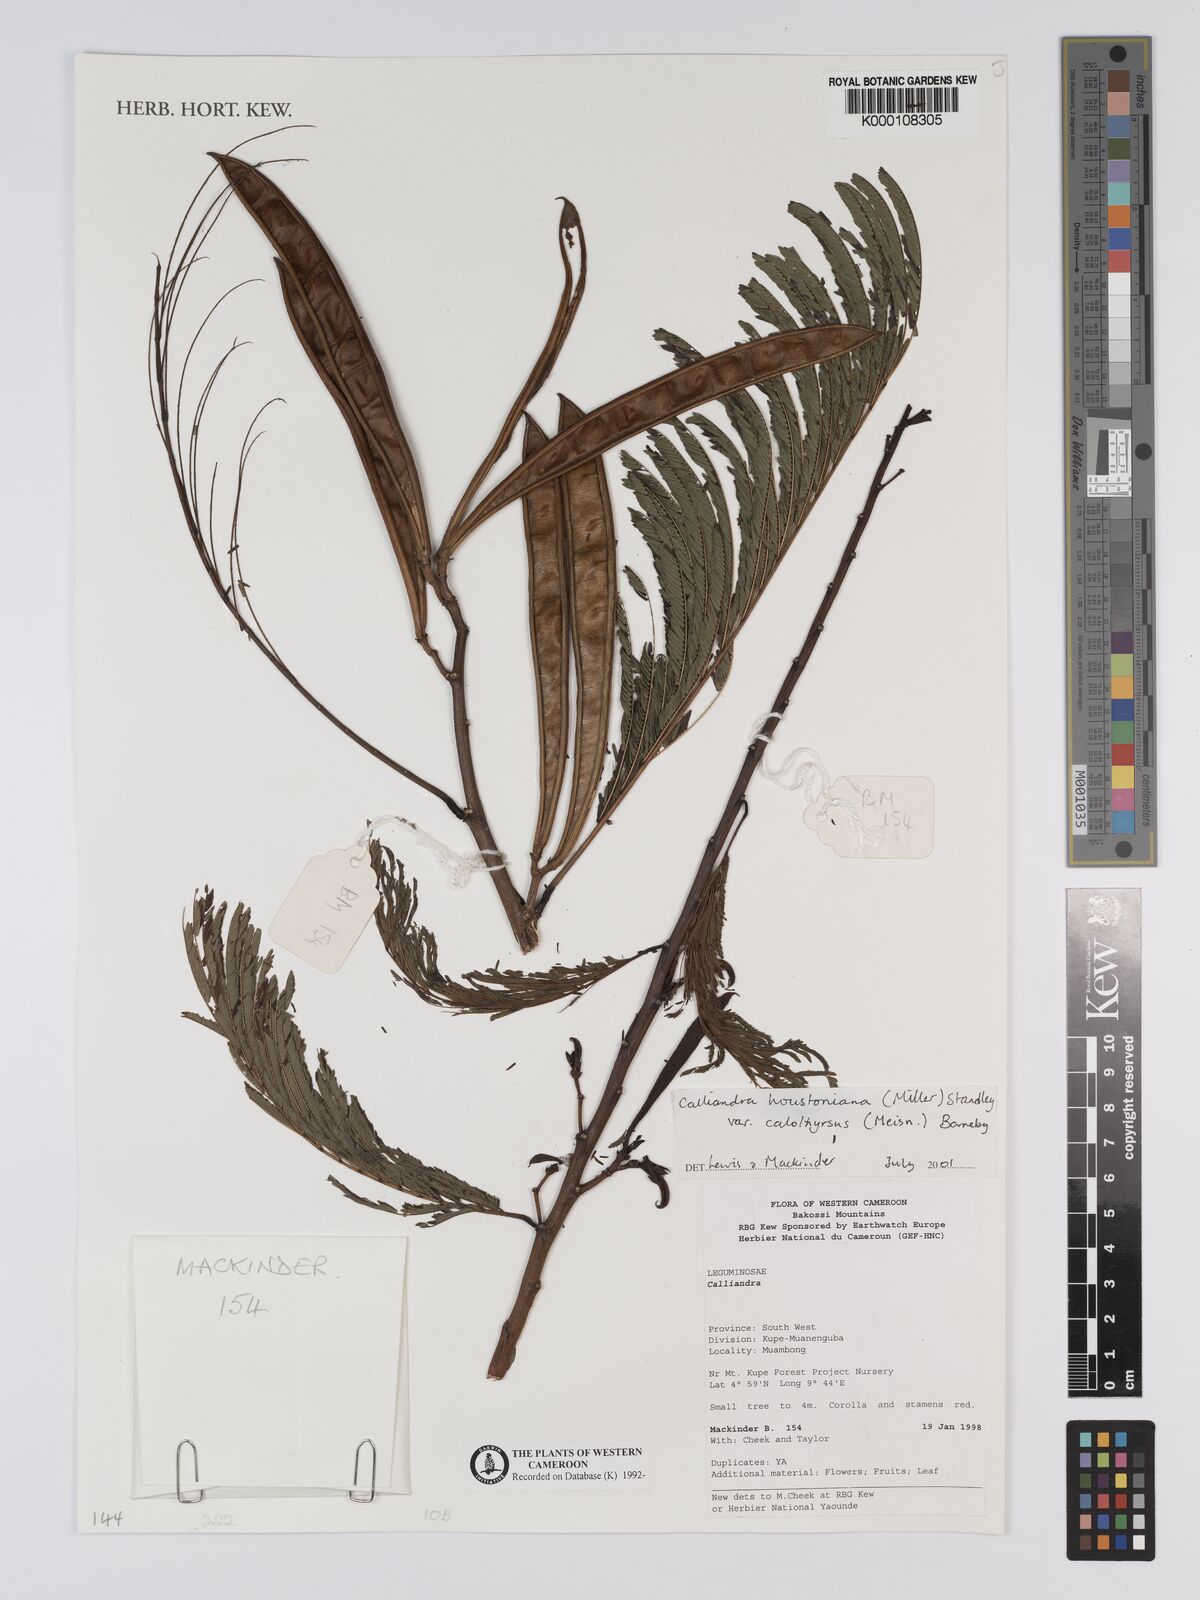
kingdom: Plantae
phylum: Tracheophyta
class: Magnoliopsida
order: Fabales
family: Fabaceae
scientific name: Fabaceae
